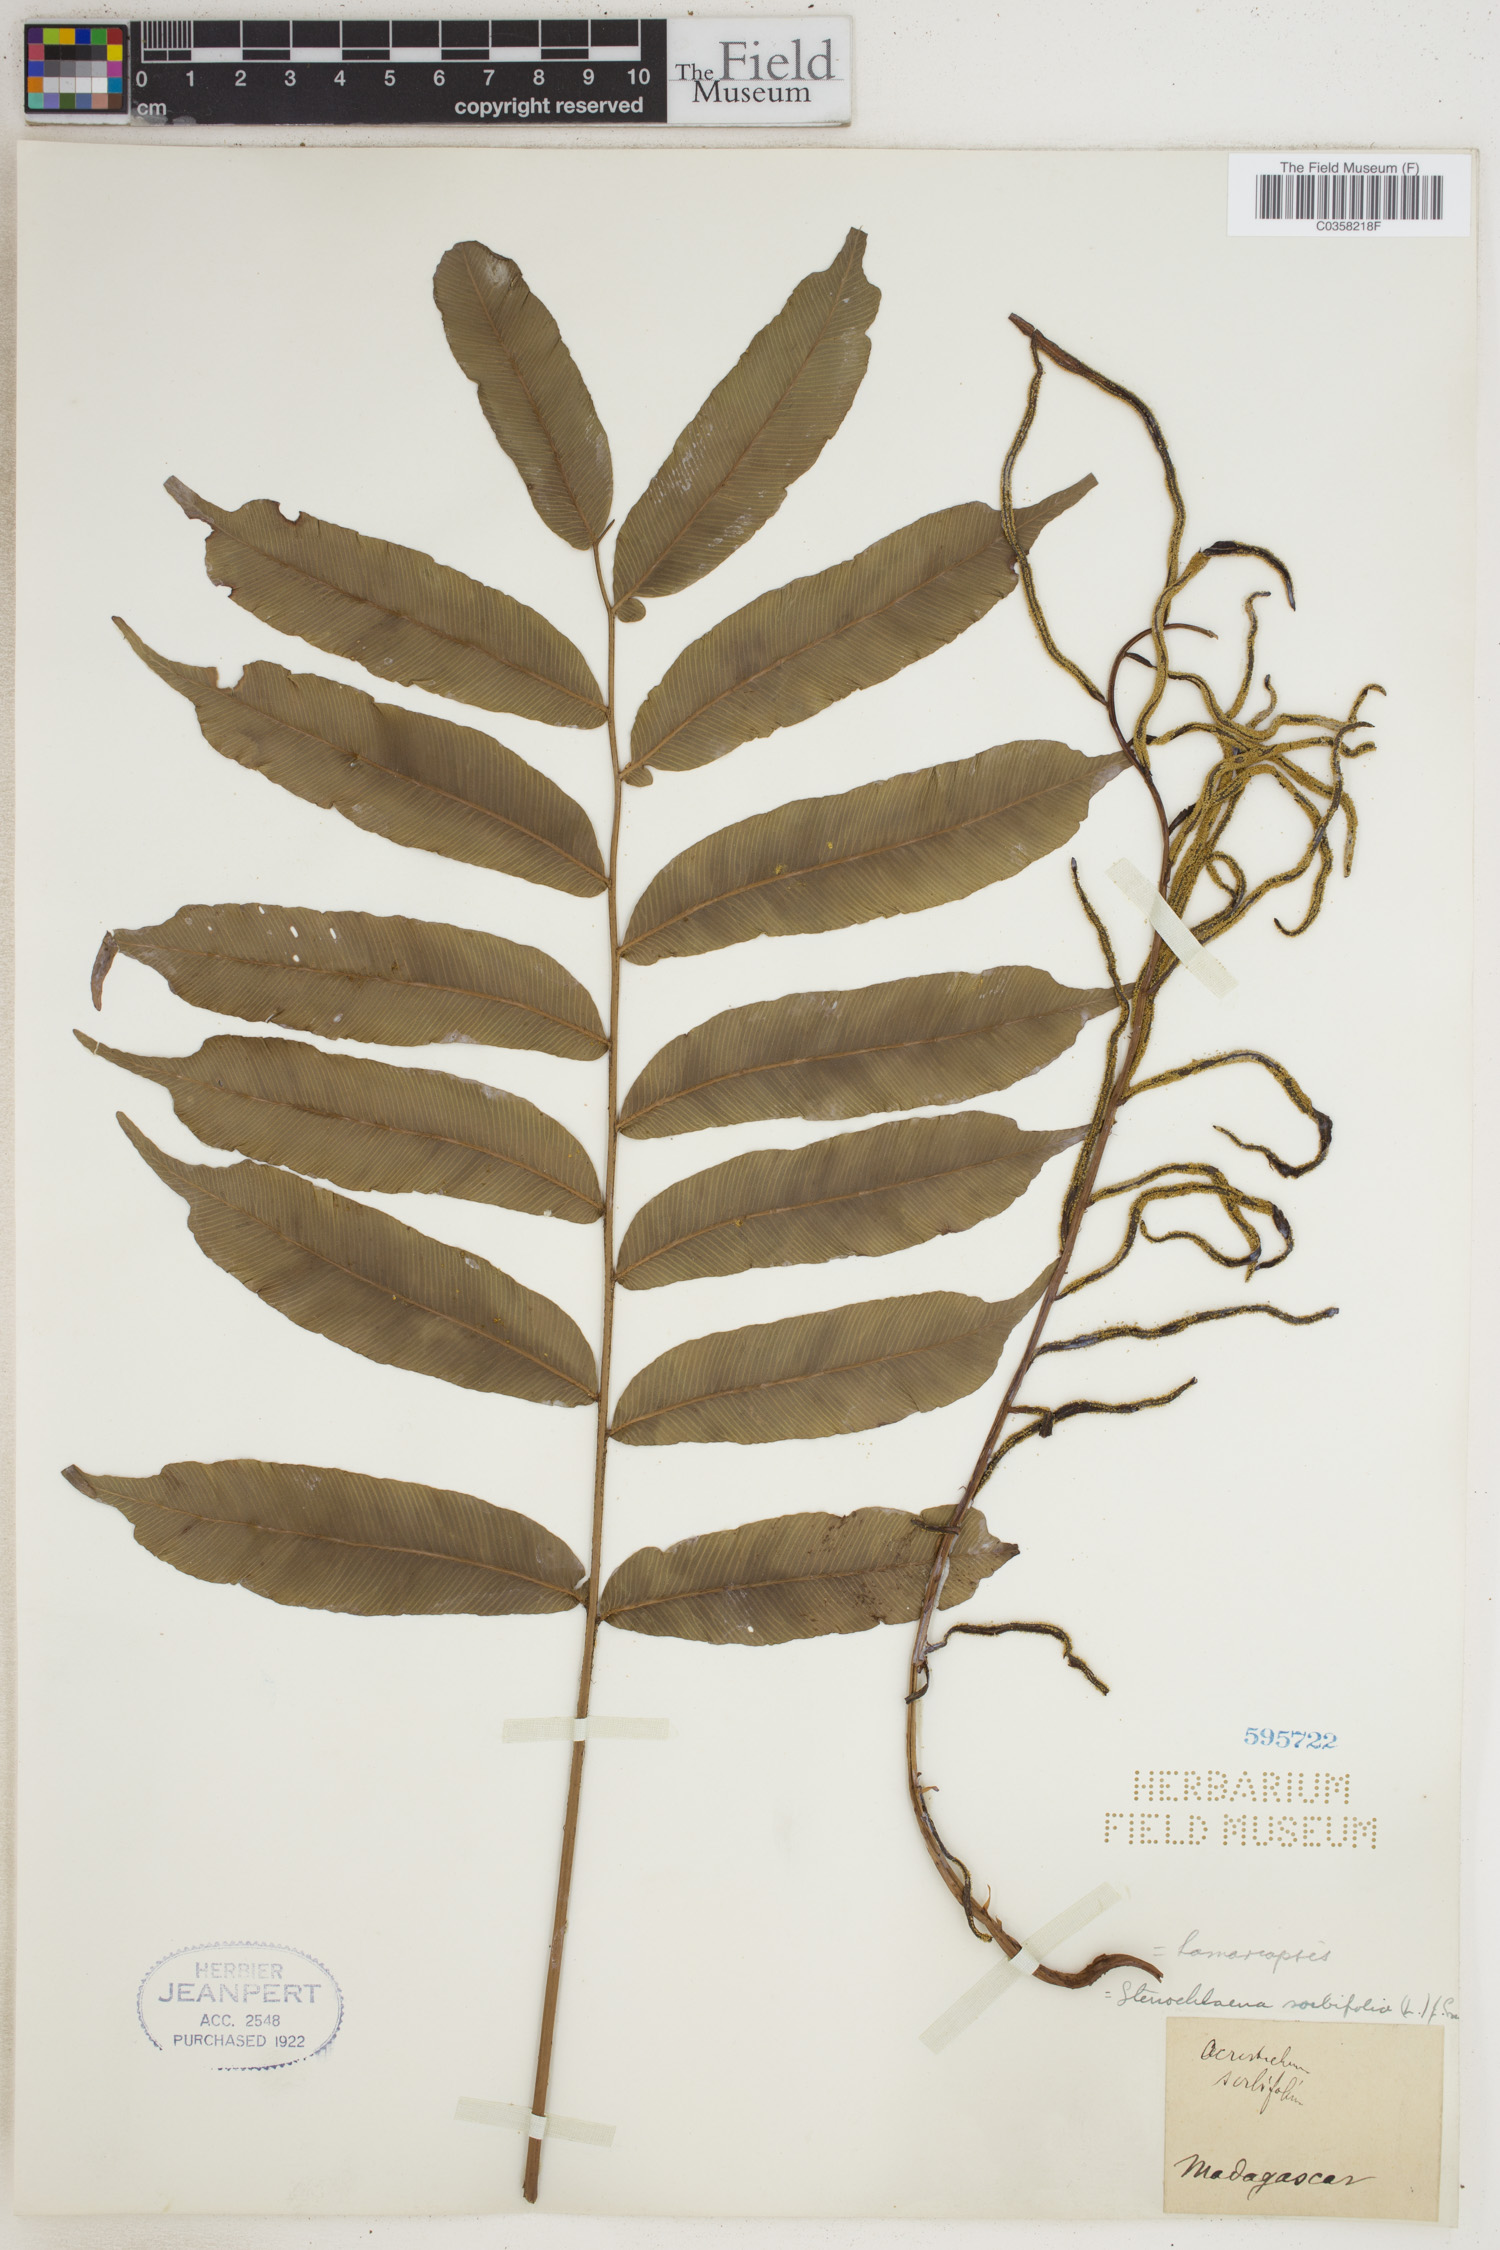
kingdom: Plantae
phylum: Tracheophyta
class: Polypodiopsida
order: Polypodiales
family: Lomariopsidaceae
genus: Lomariopsis
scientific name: Lomariopsis sorbifolia
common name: Acacia fringedfern
